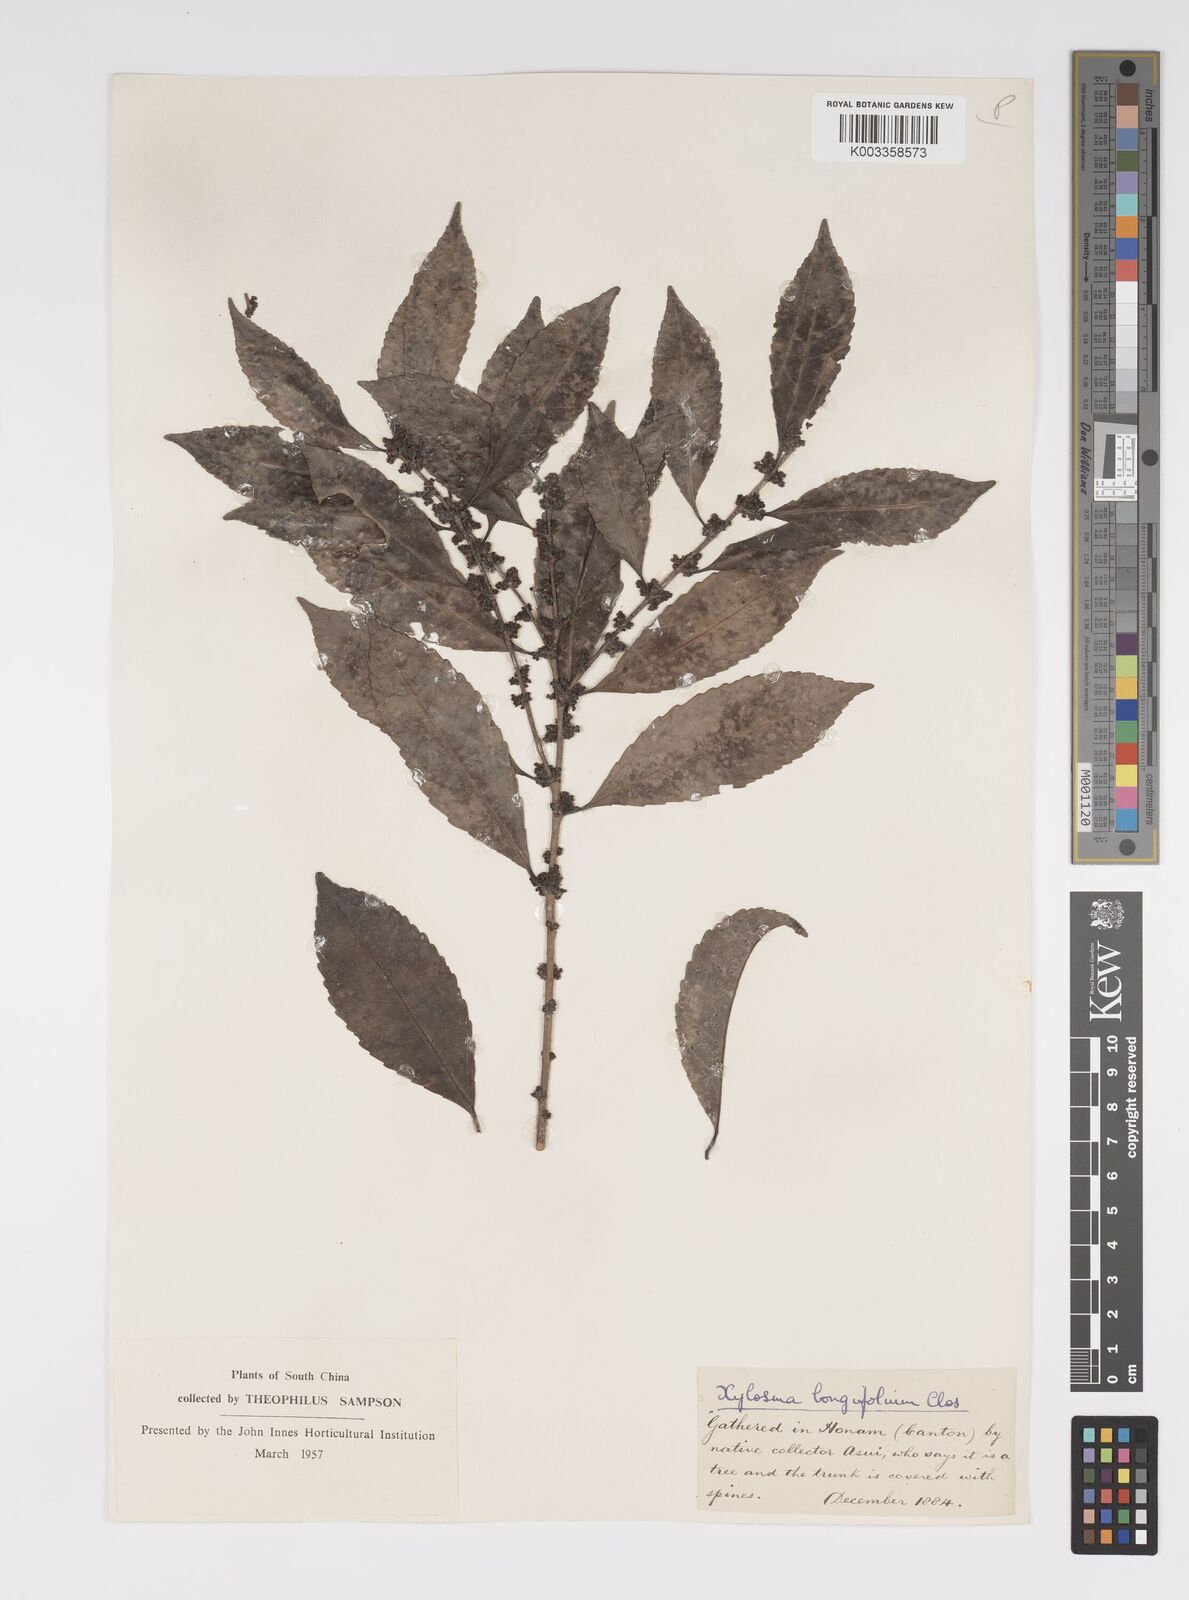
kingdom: Plantae
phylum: Tracheophyta
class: Magnoliopsida
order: Malpighiales
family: Salicaceae
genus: Xylosma
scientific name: Xylosma longifolia
